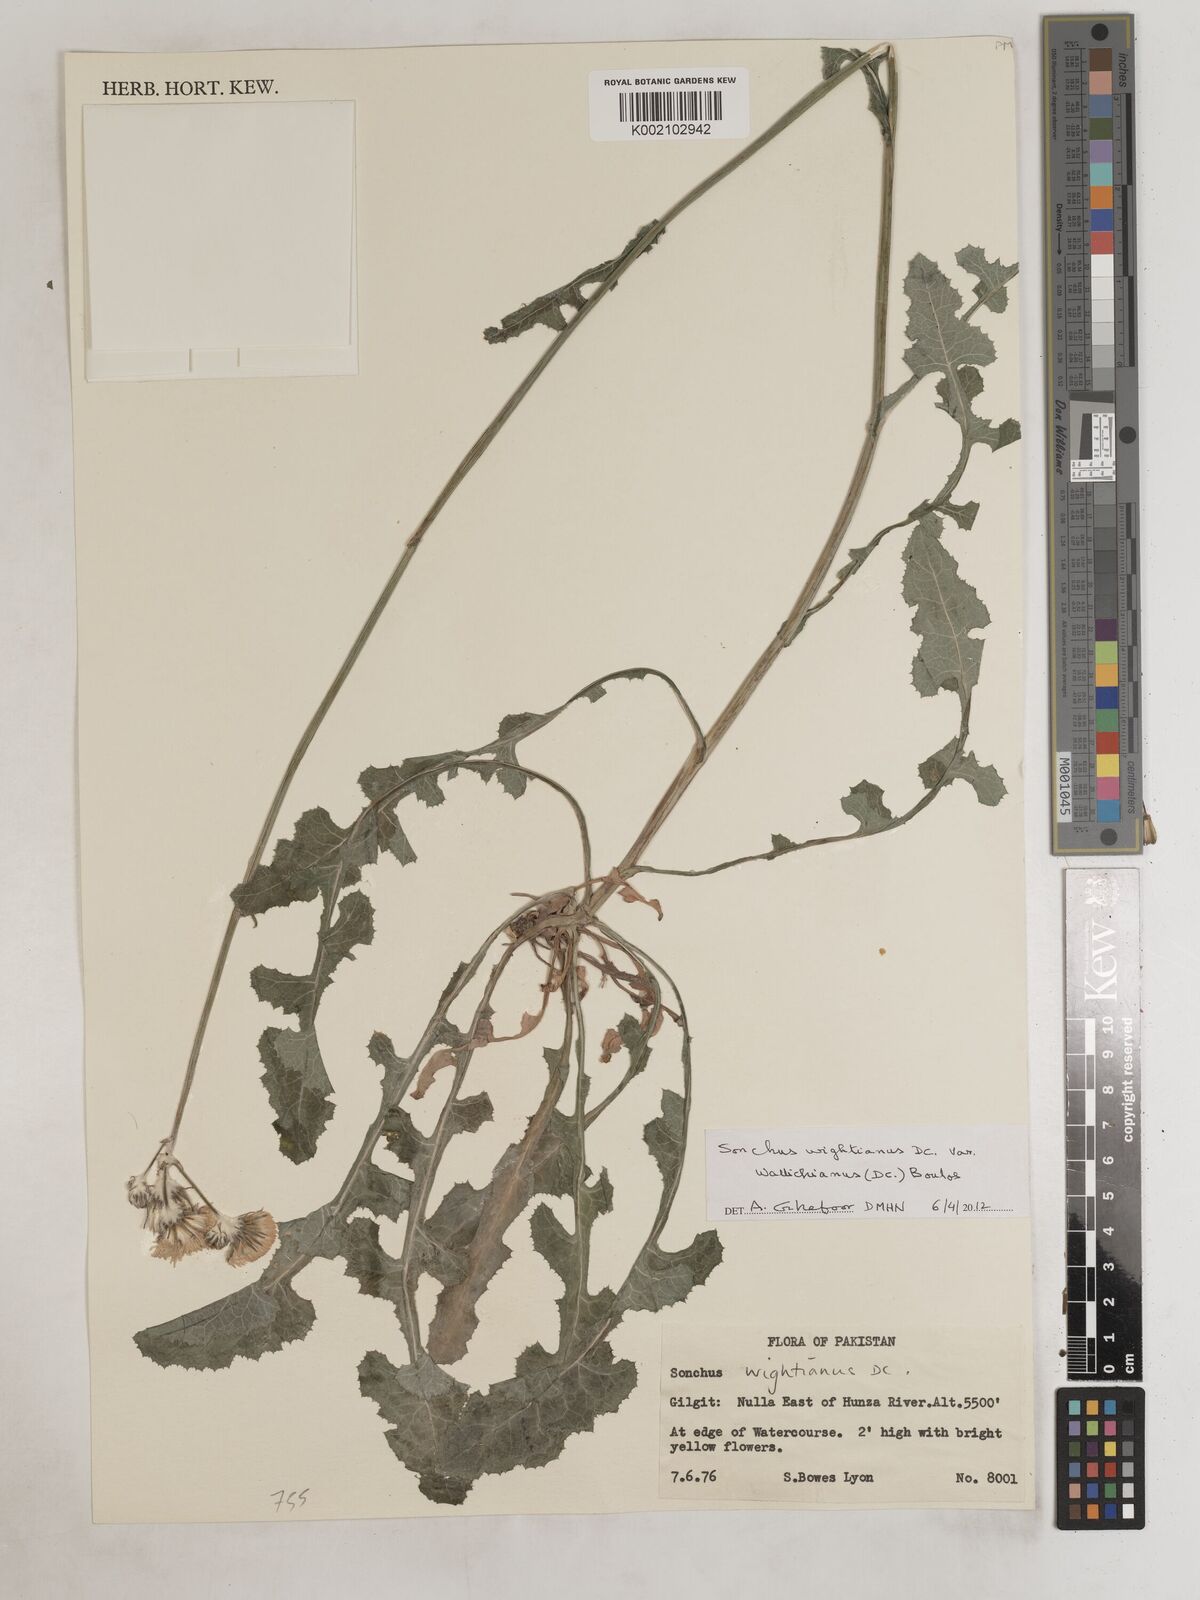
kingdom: Plantae
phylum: Tracheophyta
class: Magnoliopsida
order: Asterales
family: Asteraceae
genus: Sonchus
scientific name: Sonchus
